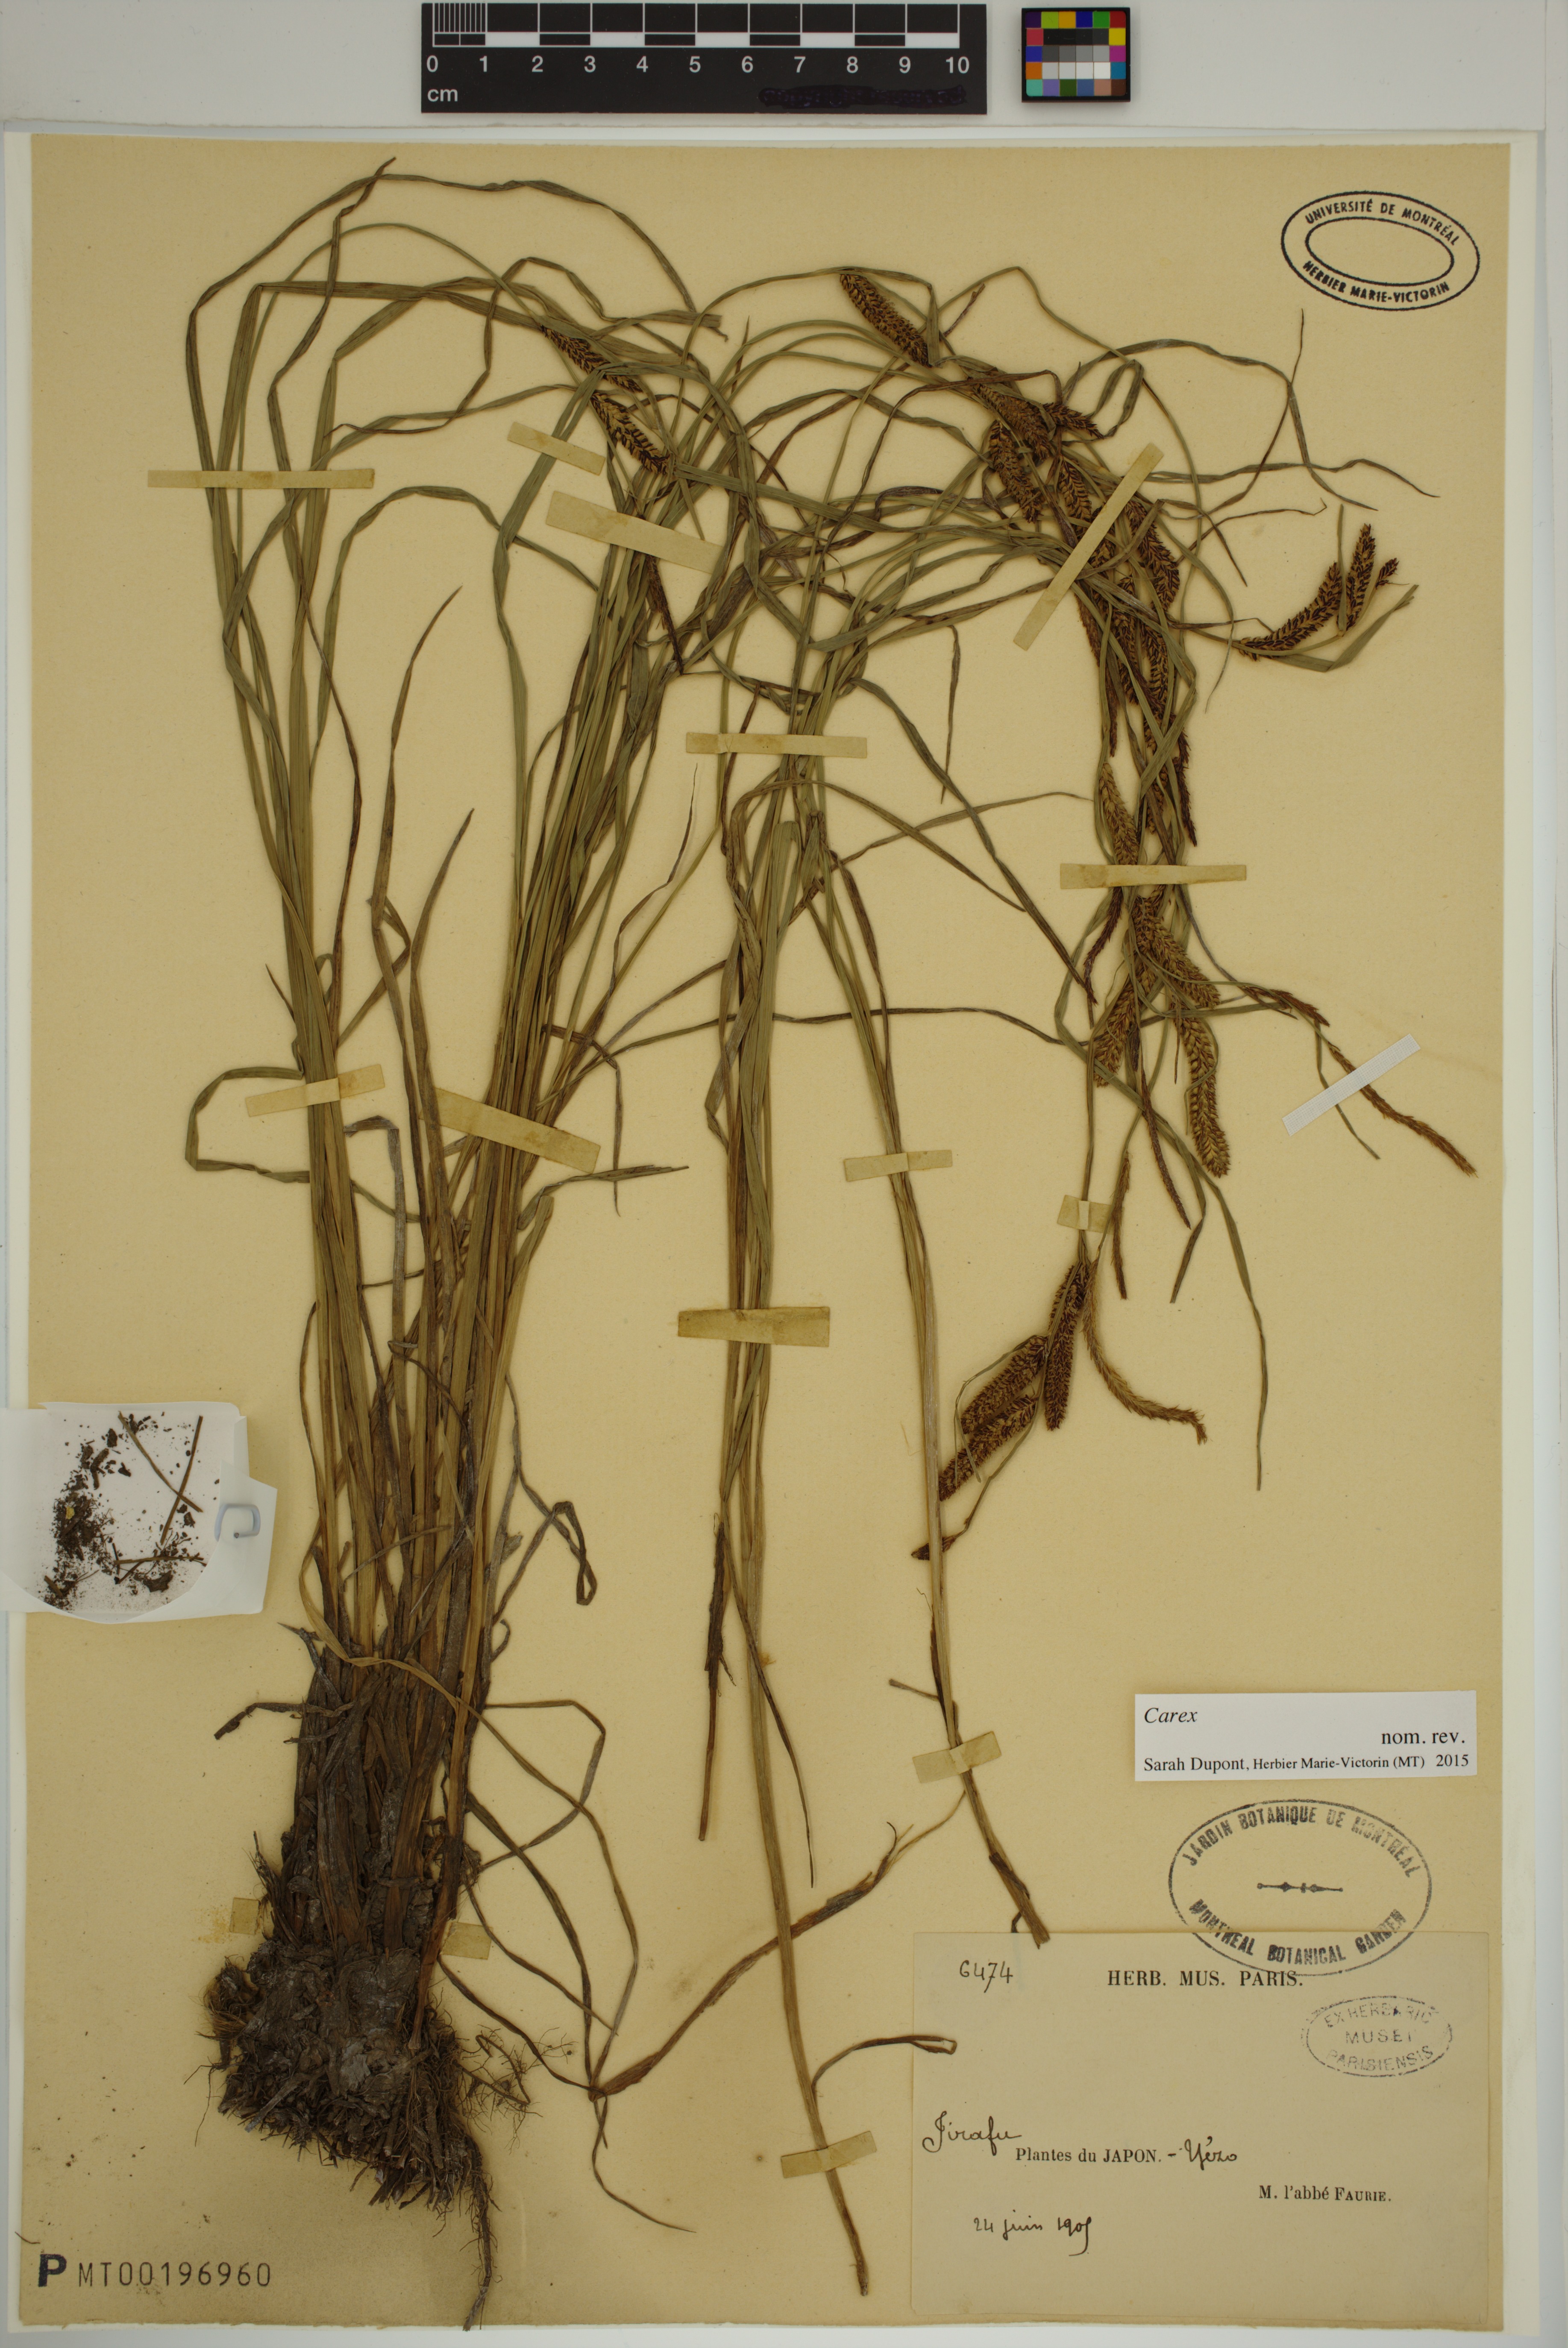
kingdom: Plantae
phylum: Tracheophyta
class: Liliopsida
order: Poales
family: Cyperaceae
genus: Carex
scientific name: Carex
